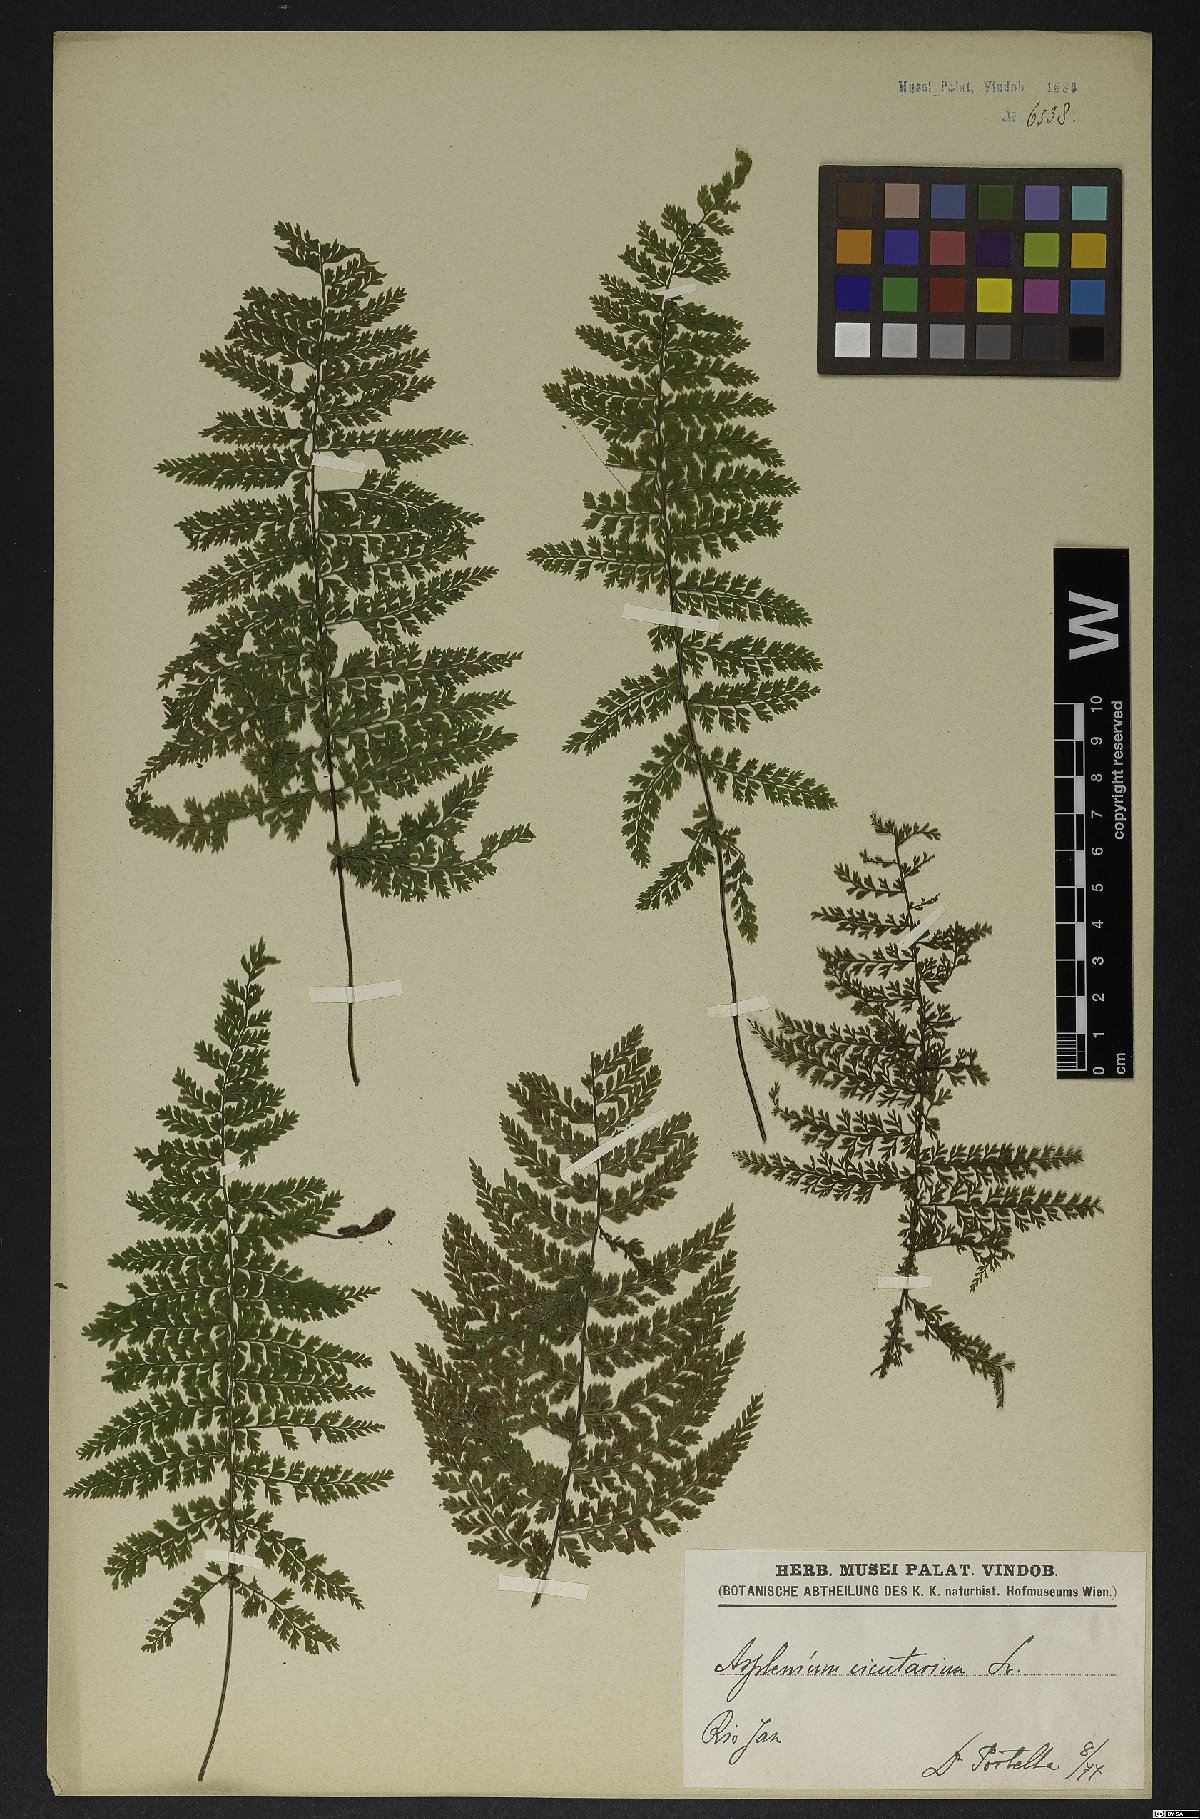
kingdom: Plantae
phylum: Tracheophyta
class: Polypodiopsida
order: Polypodiales
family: Aspleniaceae
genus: Asplenium
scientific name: Asplenium cristatum
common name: Parsley spleenwort
